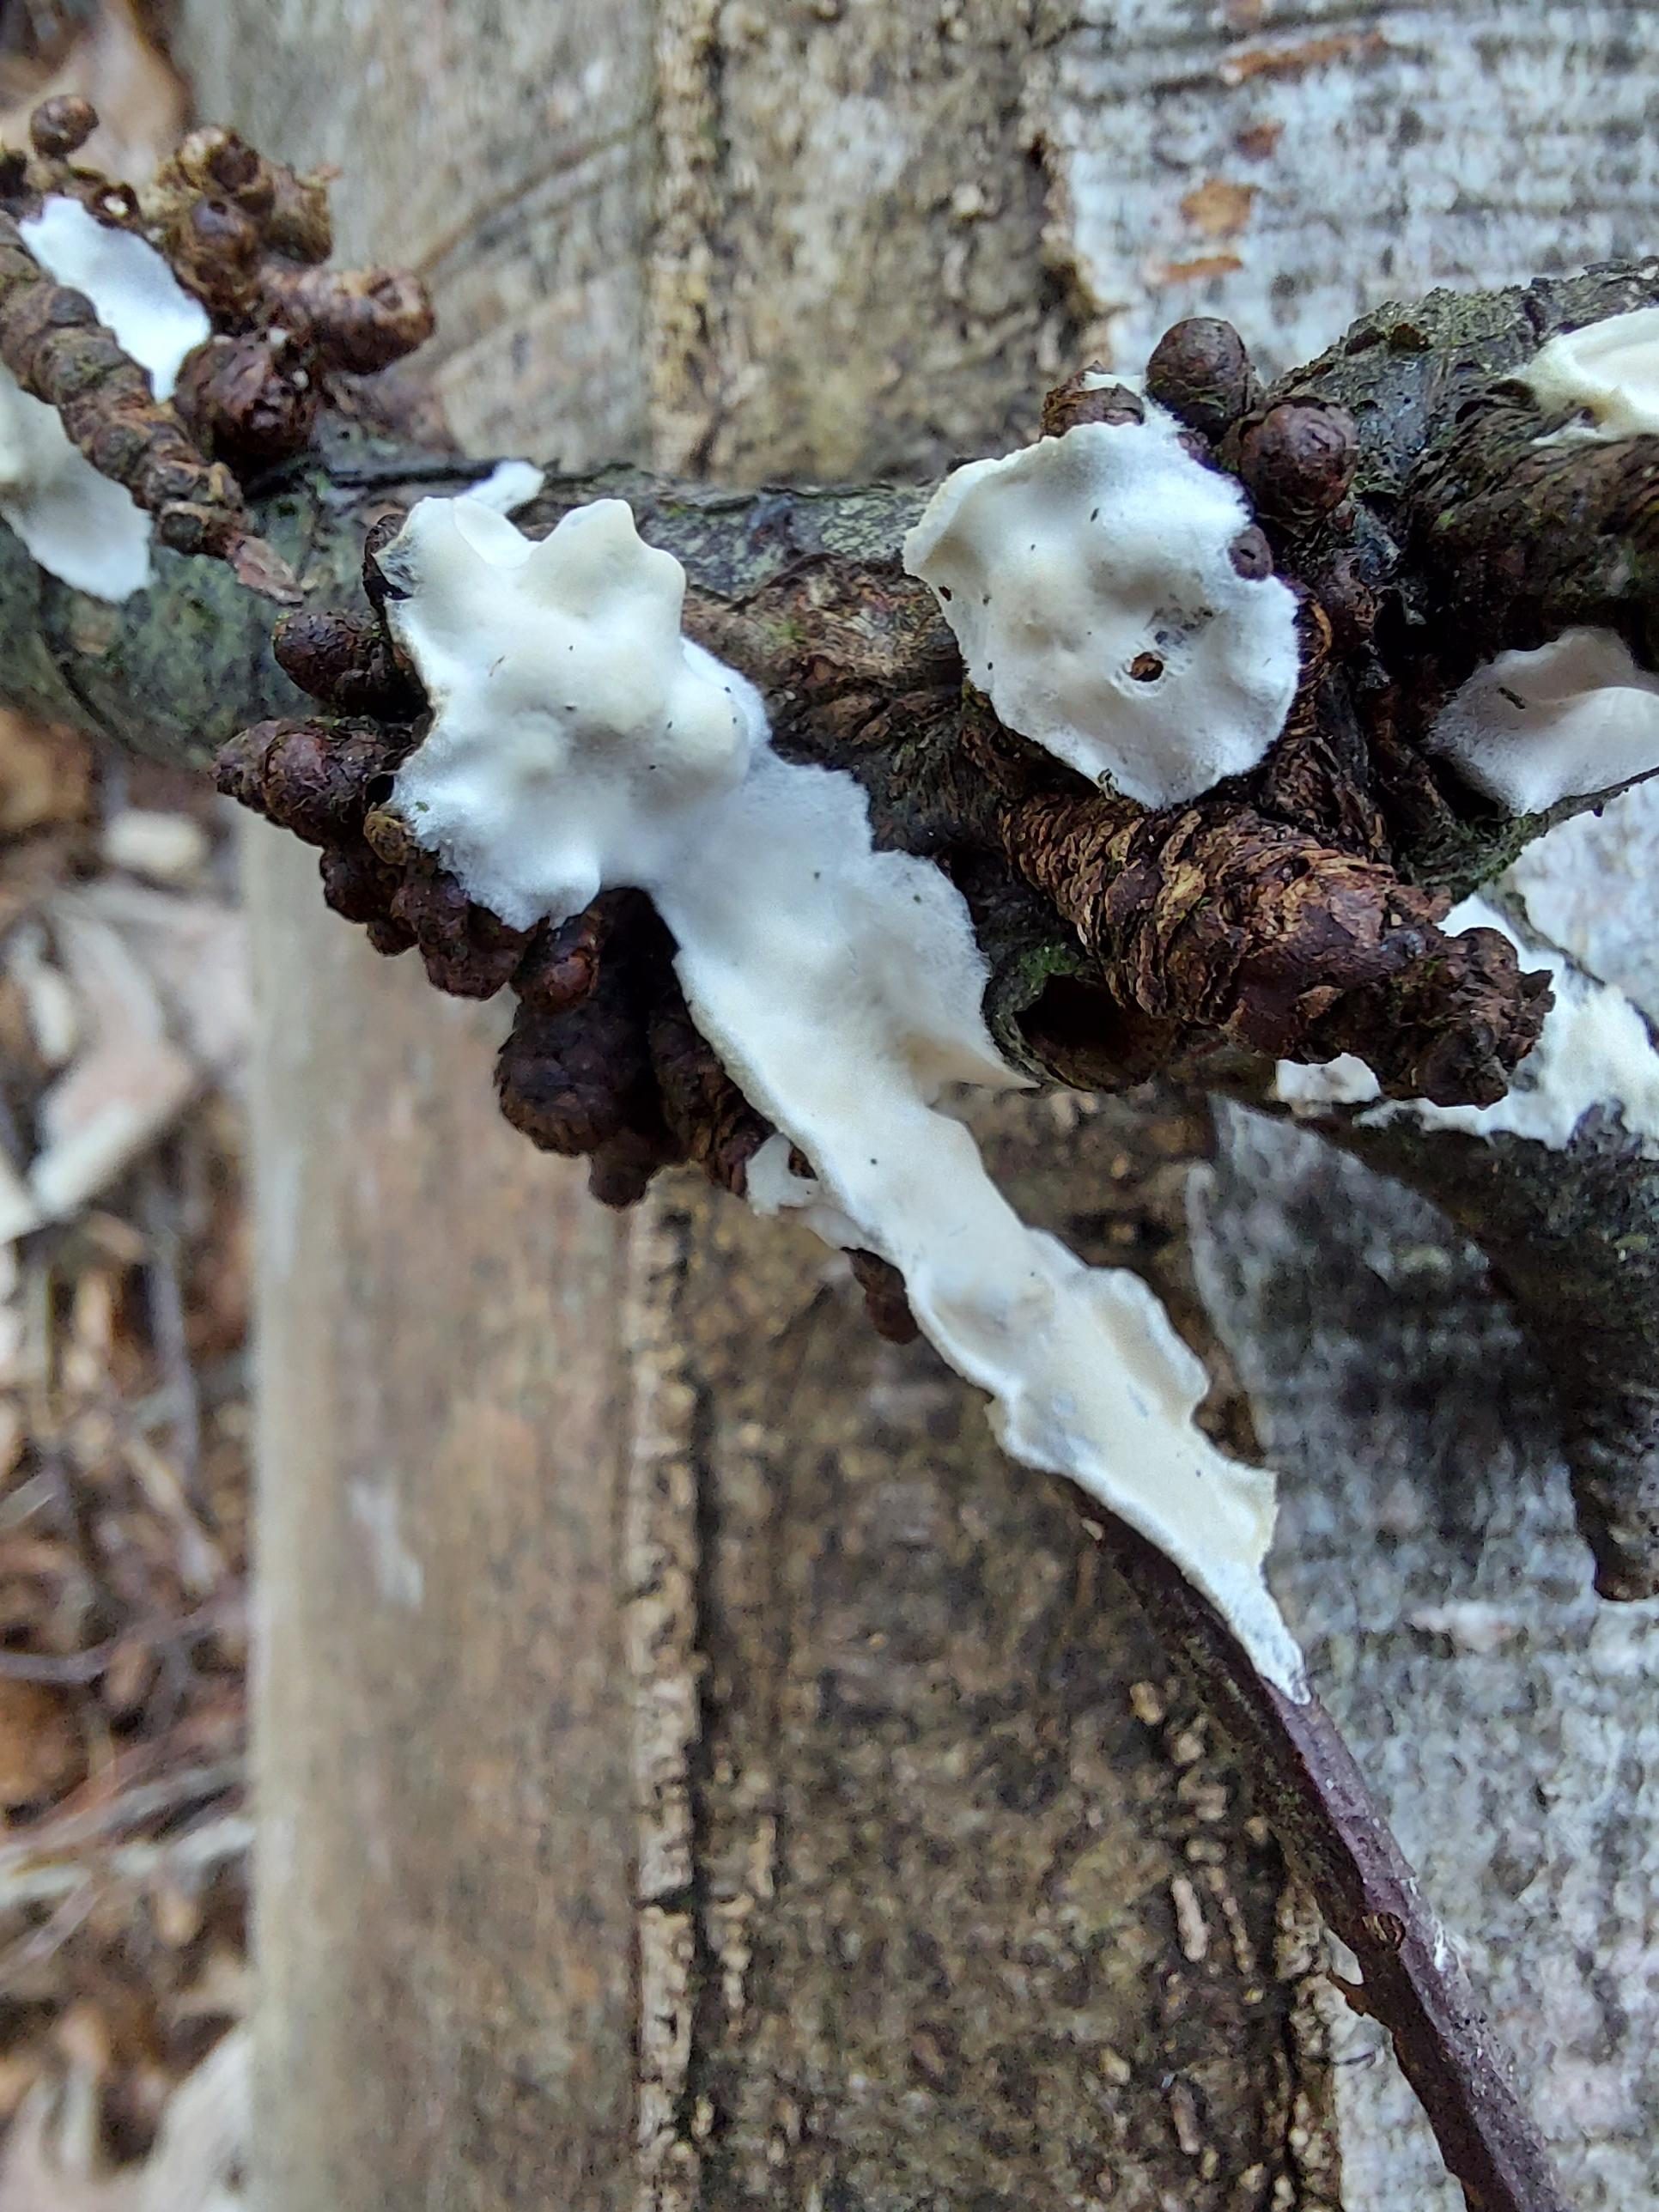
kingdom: Fungi
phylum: Basidiomycota
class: Agaricomycetes
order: Polyporales
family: Irpicaceae
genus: Byssomerulius
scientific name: Byssomerulius corium
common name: læder-åresvamp
